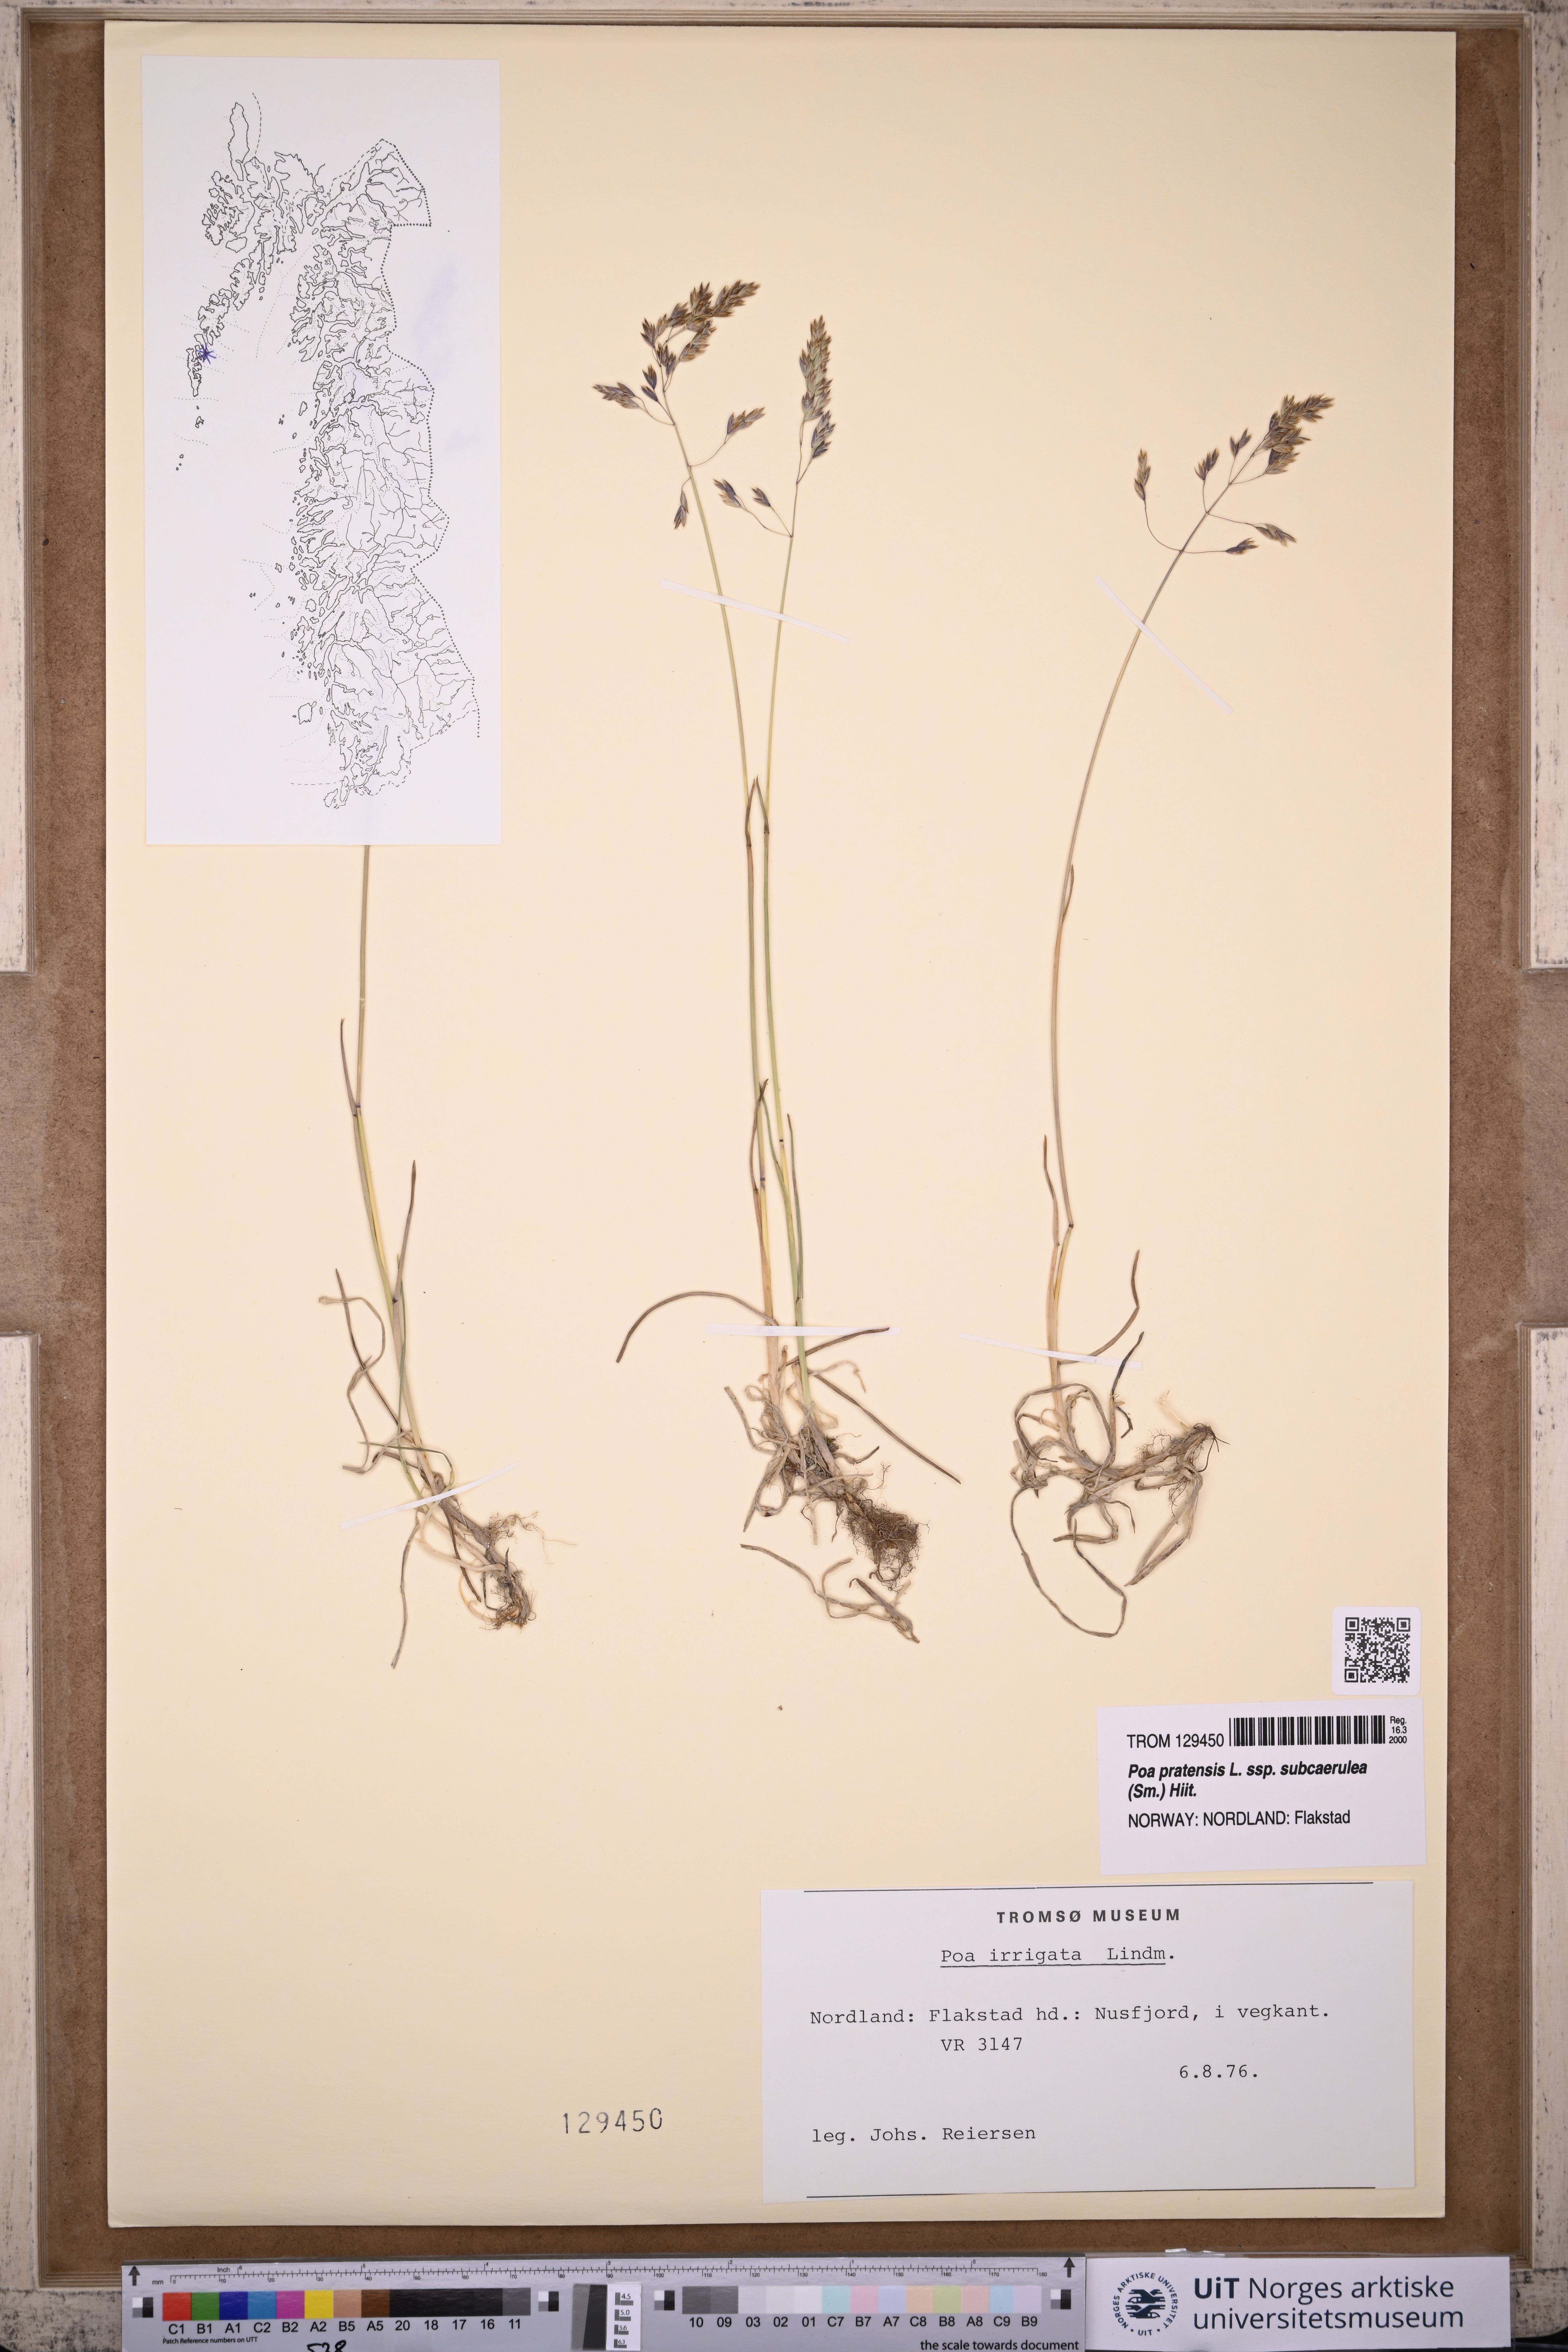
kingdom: Plantae
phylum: Tracheophyta
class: Liliopsida
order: Poales
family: Poaceae
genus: Poa
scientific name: Poa humilis
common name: Spreading meadow-grass
